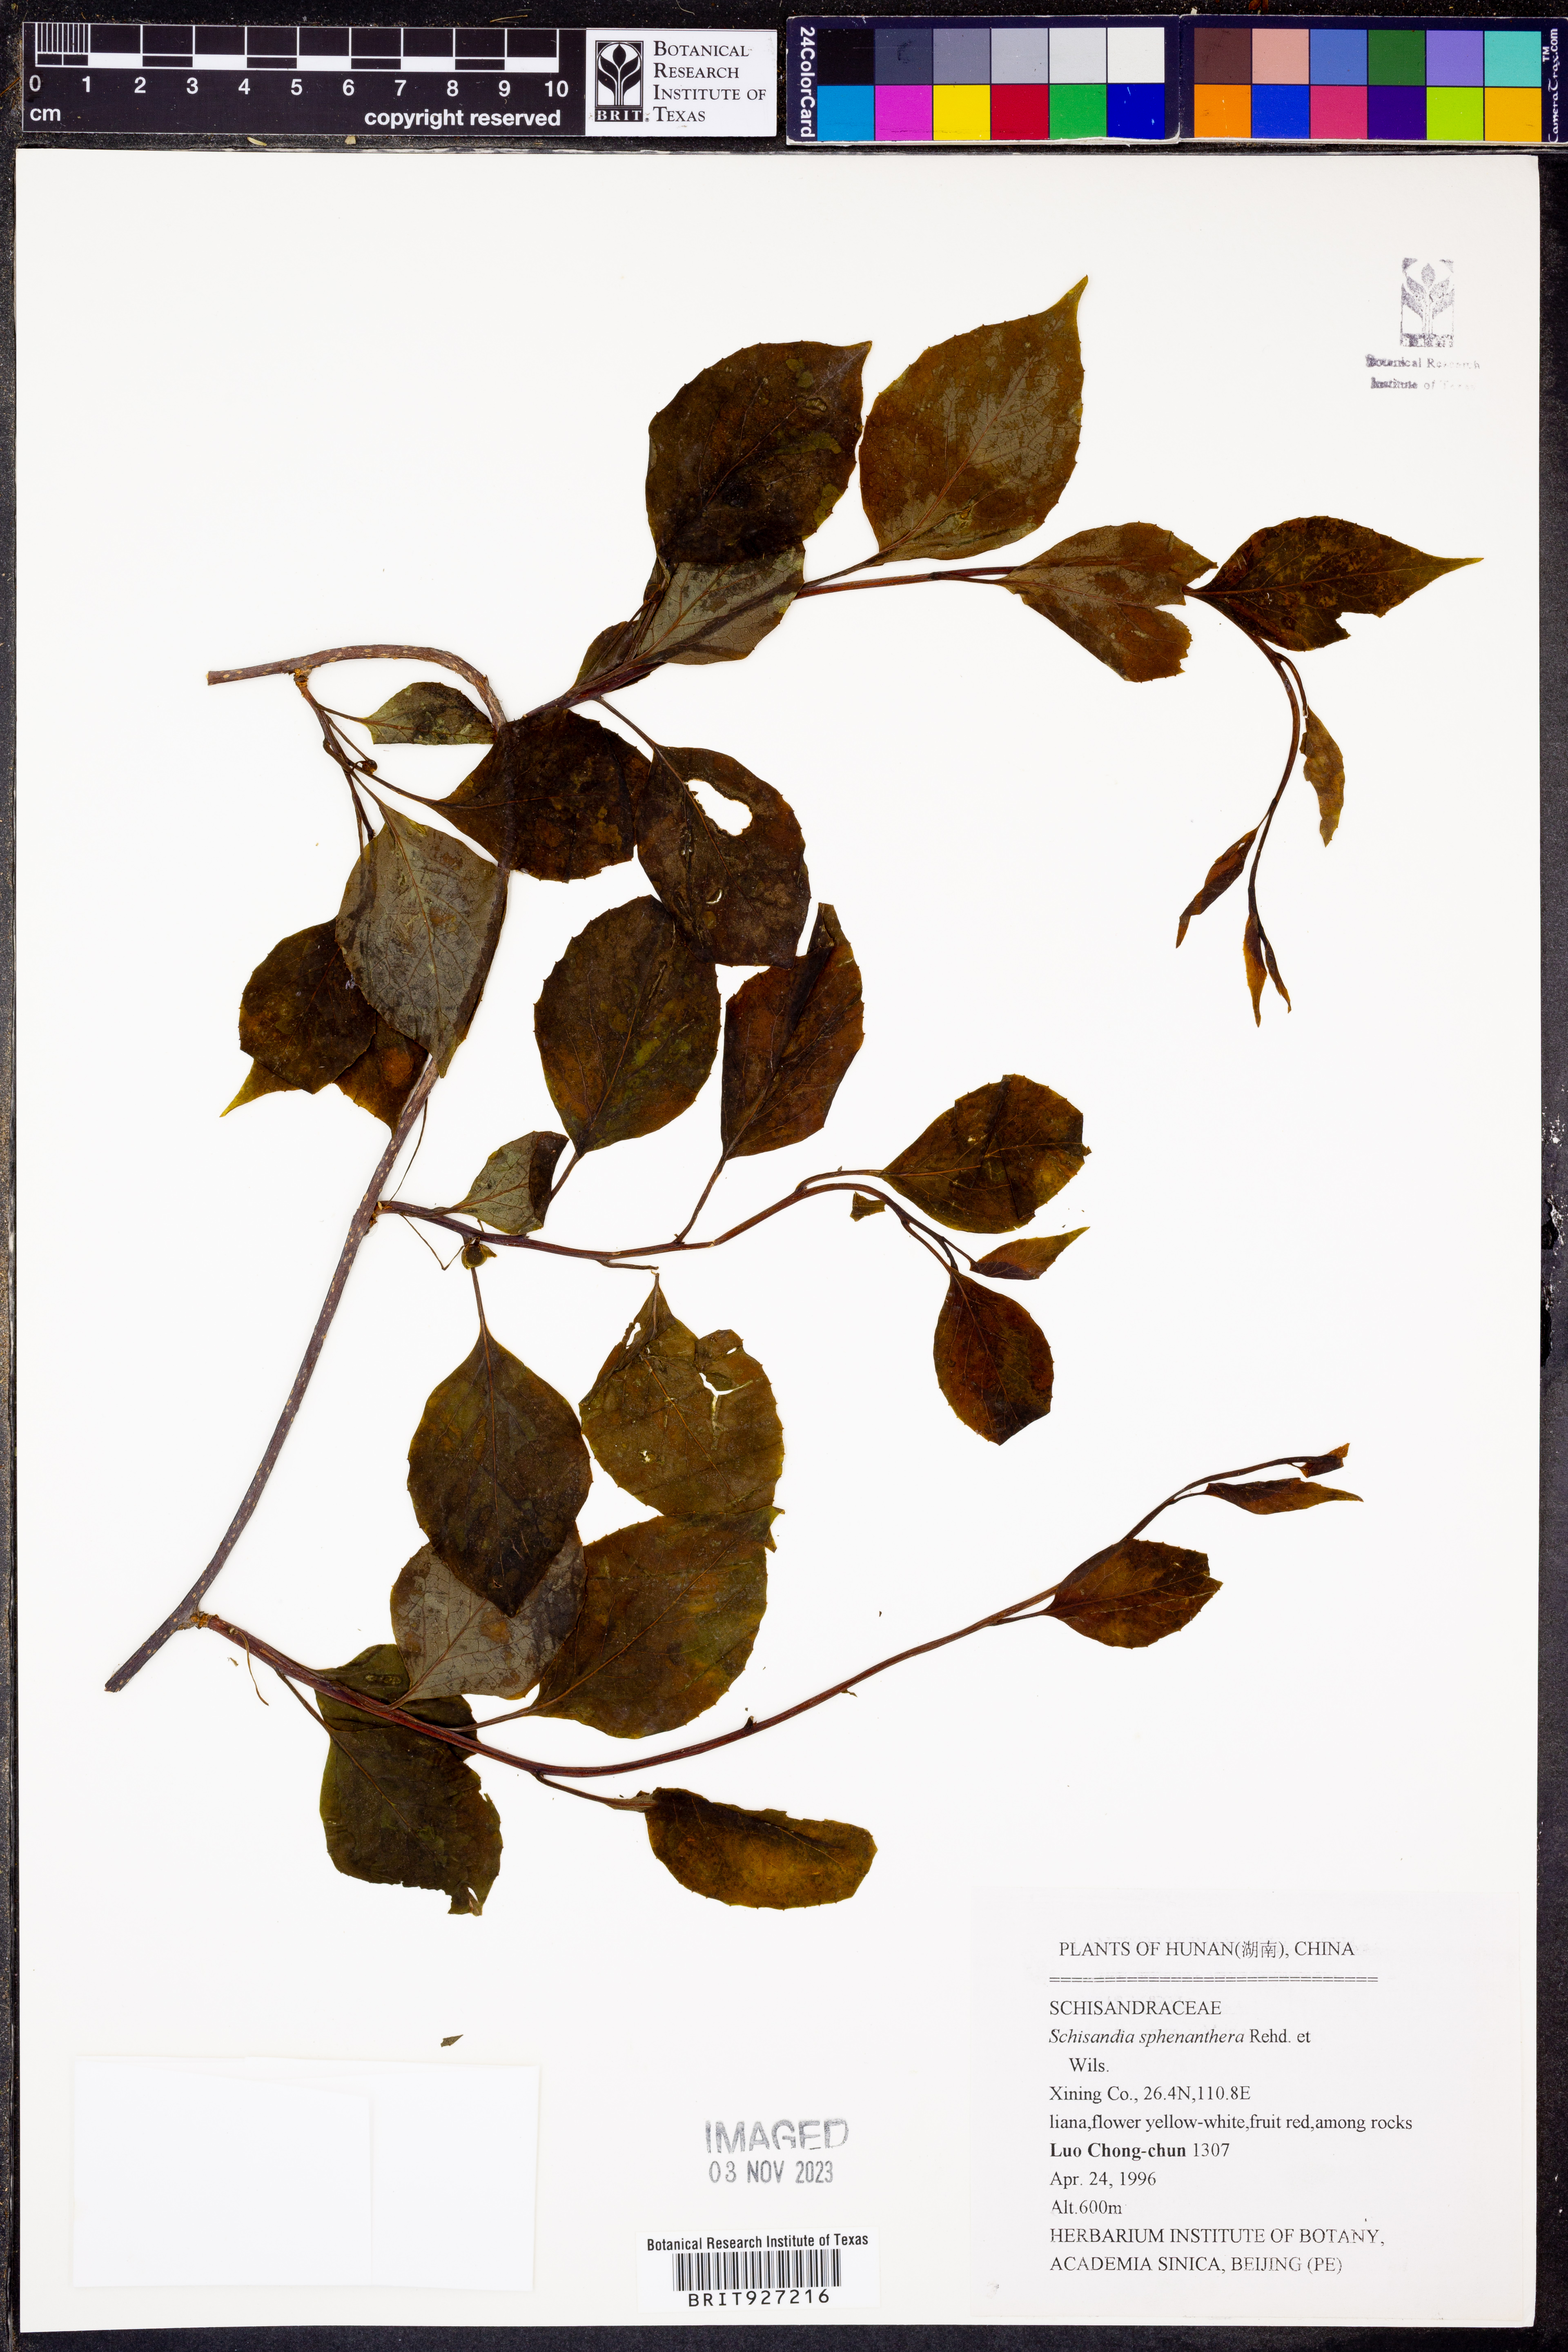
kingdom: Plantae
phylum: Tracheophyta
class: Magnoliopsida
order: Austrobaileyales
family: Schisandraceae
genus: Schisandra
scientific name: Schisandra sphenanthera
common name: Lemonwood
